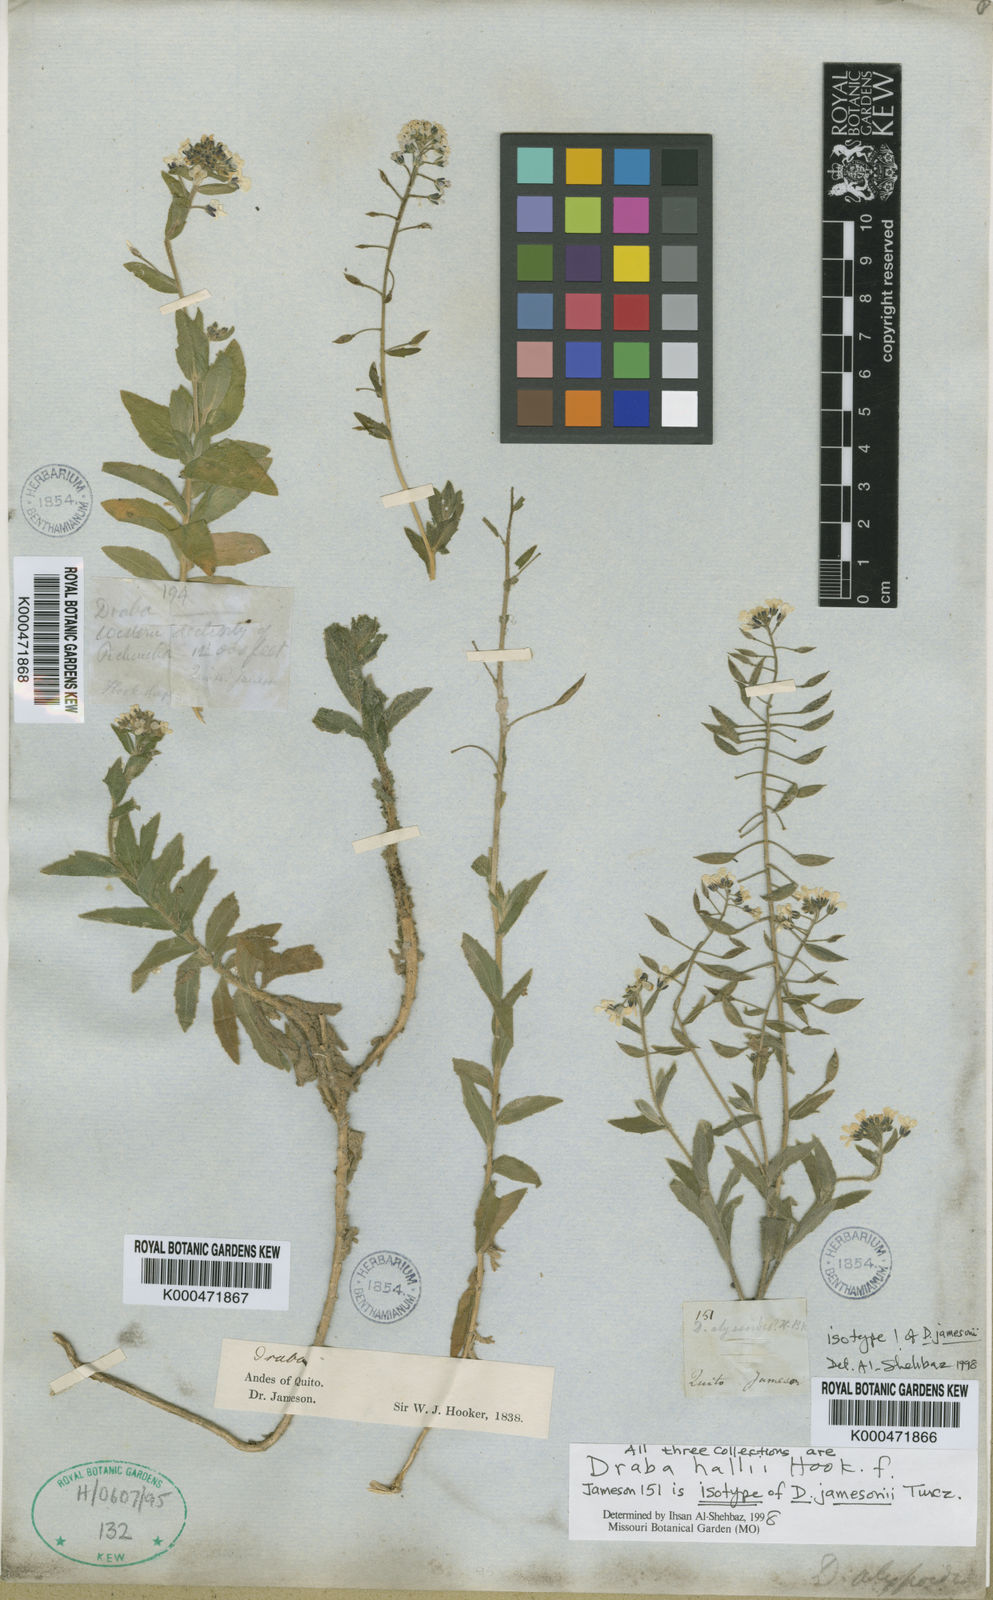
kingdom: Plantae
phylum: Tracheophyta
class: Magnoliopsida
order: Brassicales
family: Brassicaceae
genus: Draba
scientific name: Draba hallii
